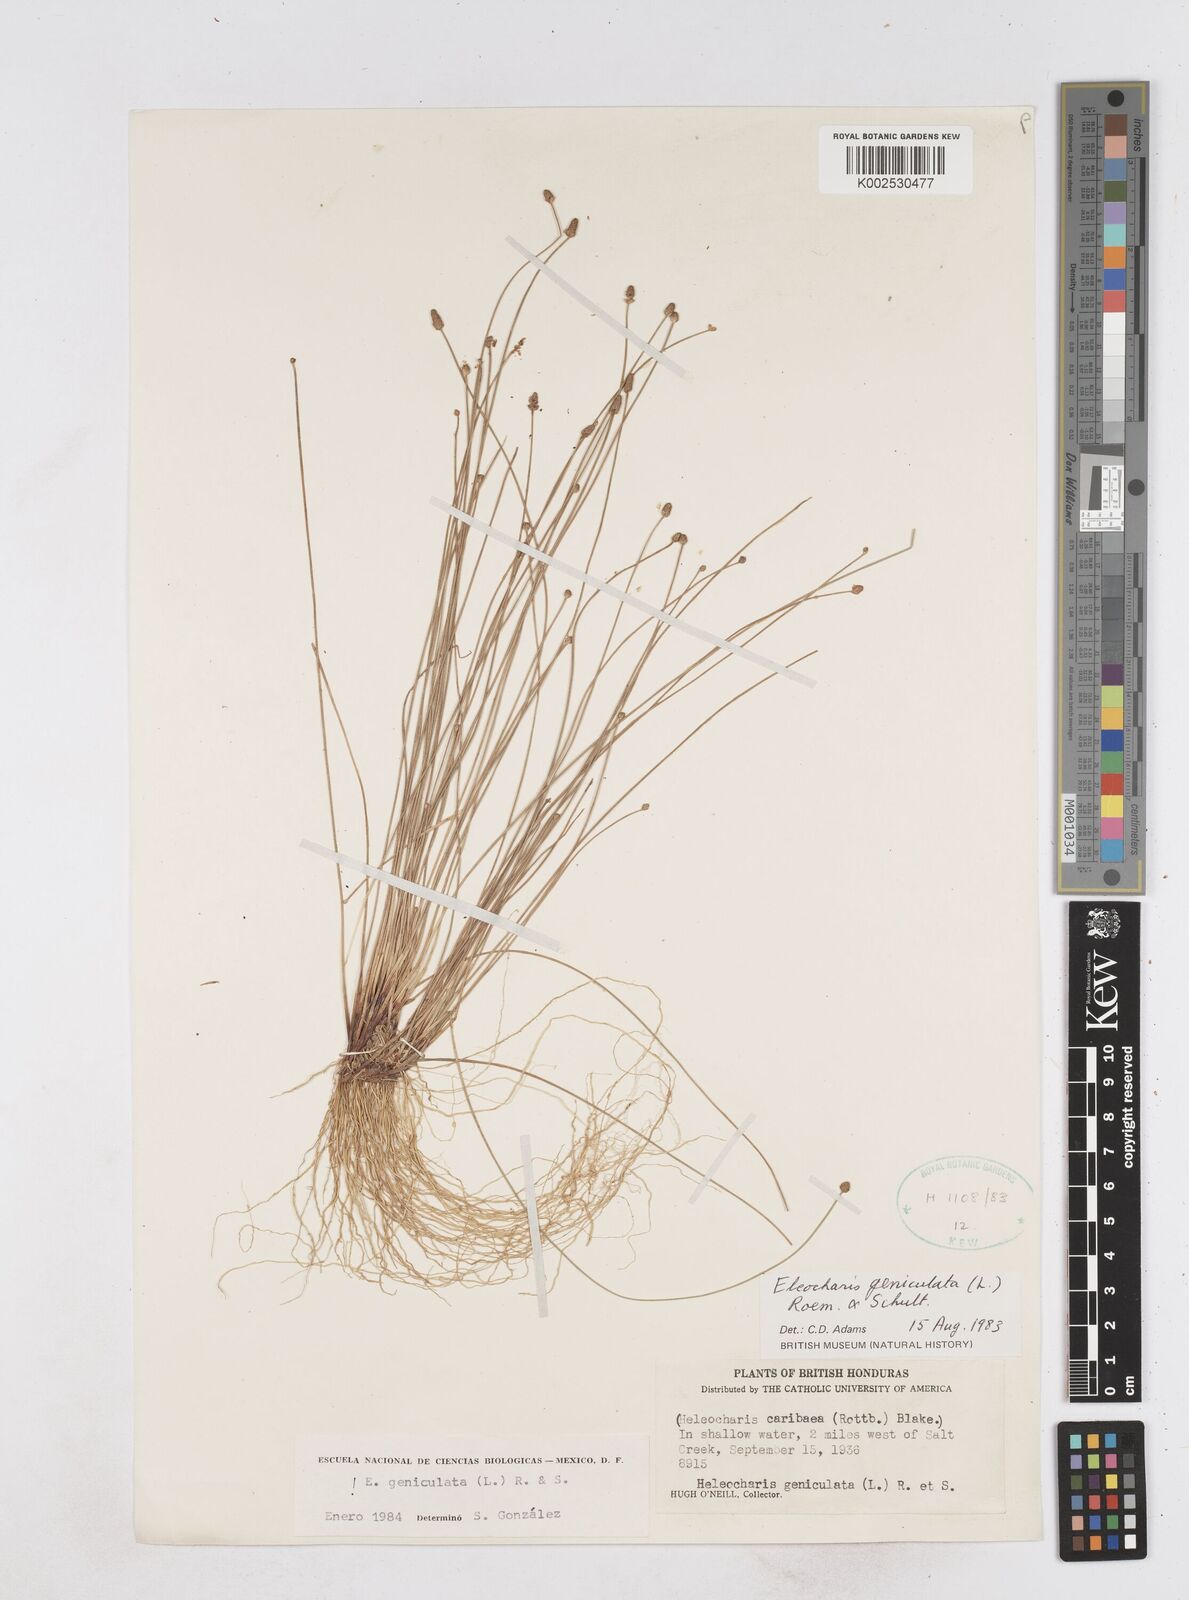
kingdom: Plantae
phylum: Tracheophyta
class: Liliopsida
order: Poales
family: Cyperaceae
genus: Eleocharis
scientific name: Eleocharis geniculata
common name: Canada spikesedge
